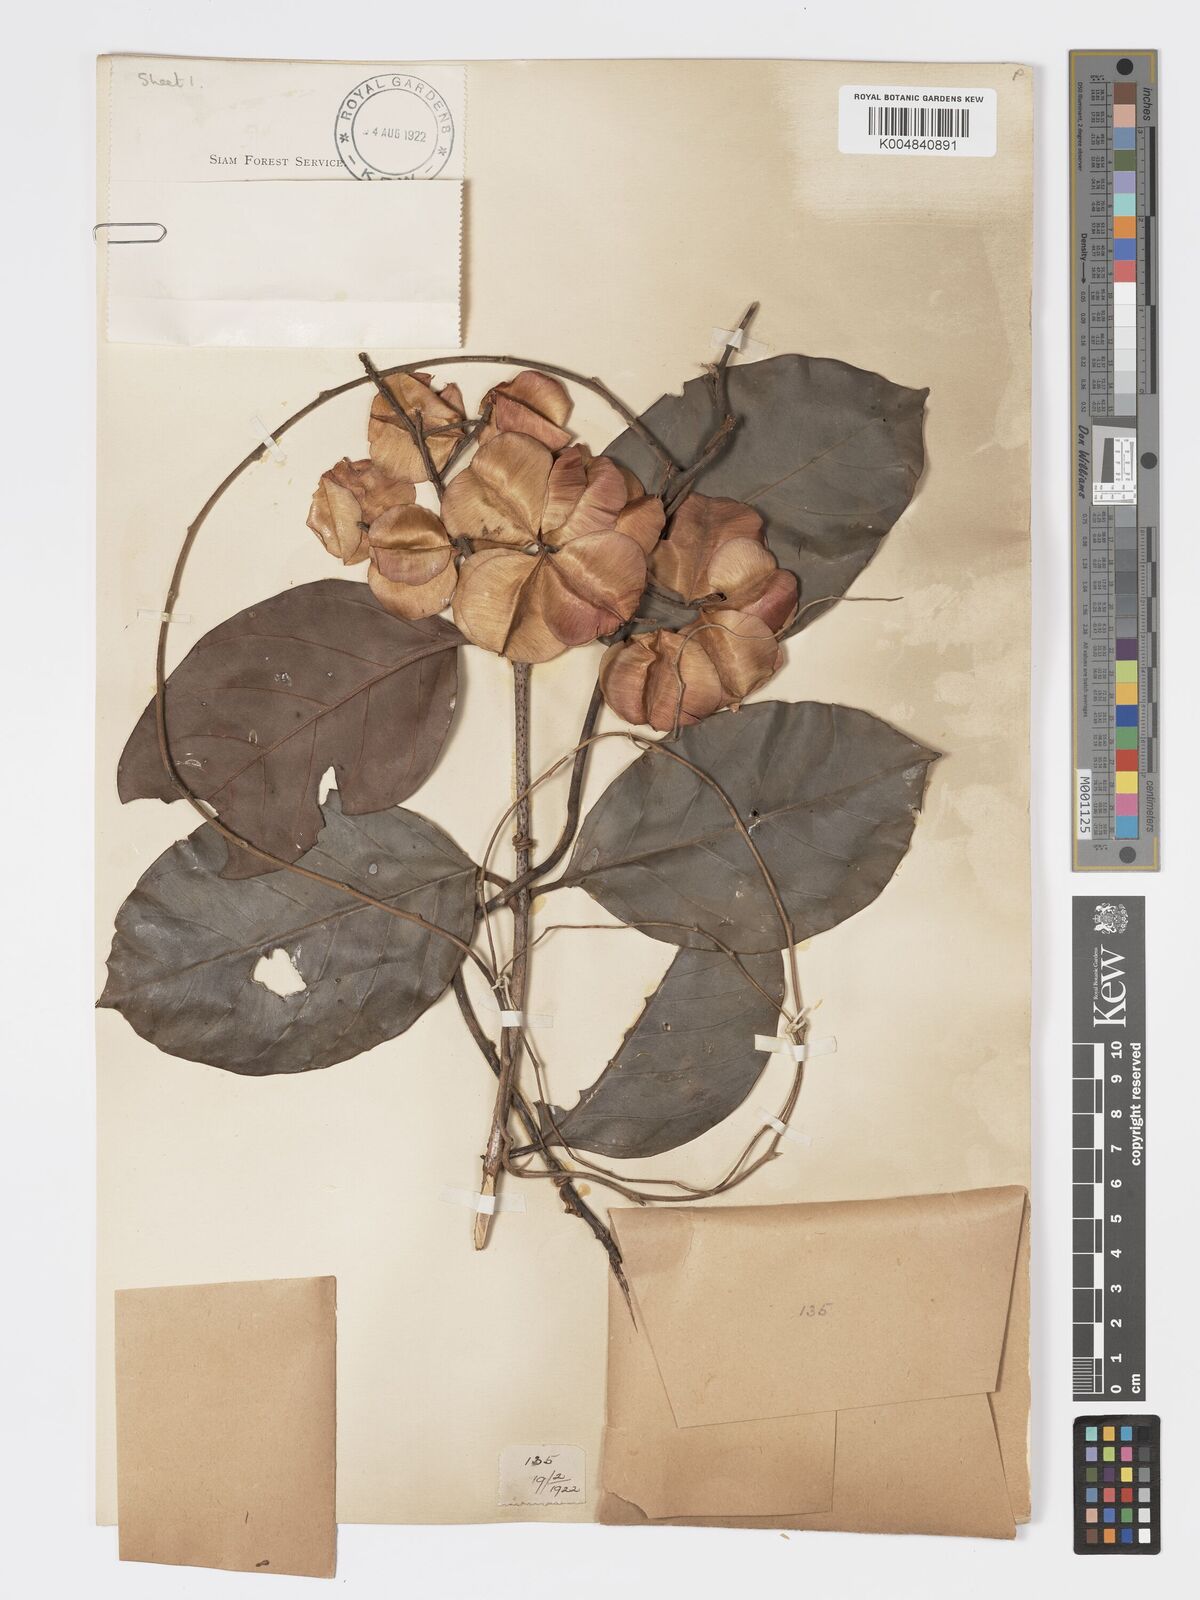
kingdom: Plantae
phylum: Tracheophyta
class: Magnoliopsida
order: Myrtales
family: Combretaceae
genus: Combretum
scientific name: Combretum
